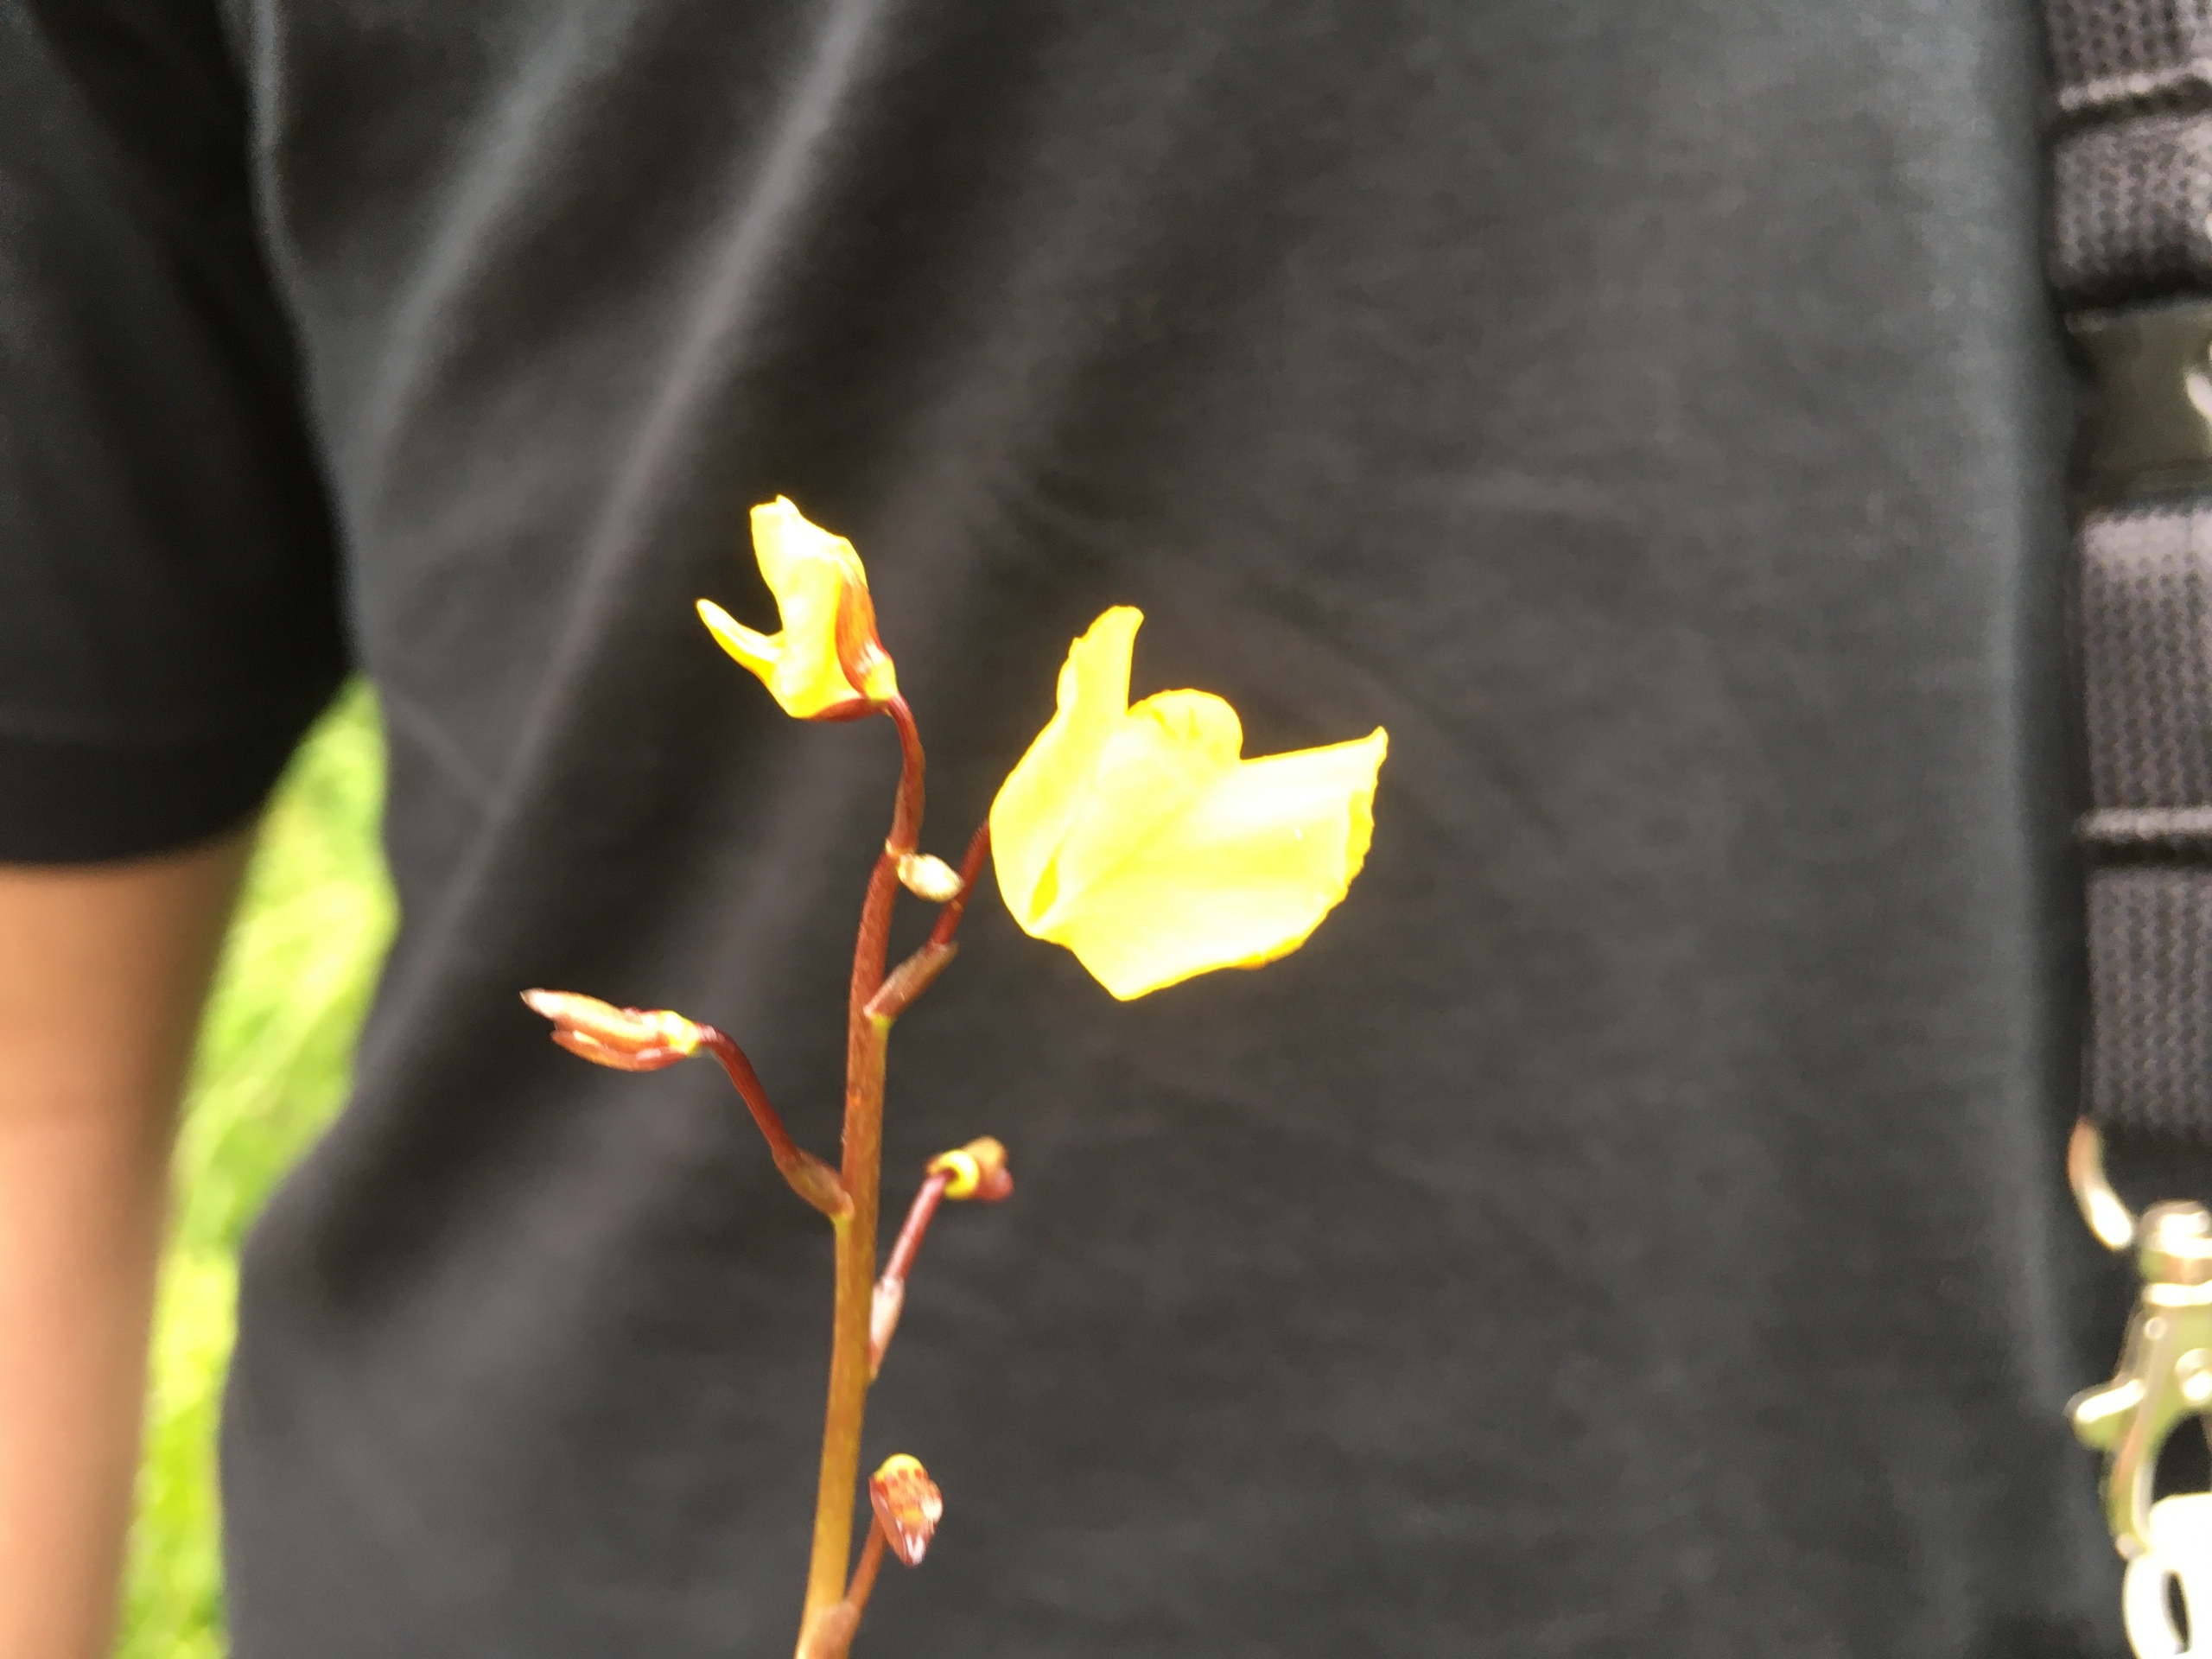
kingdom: Plantae
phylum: Tracheophyta
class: Magnoliopsida
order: Lamiales
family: Lentibulariaceae
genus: Utricularia
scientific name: Utricularia vulgaris
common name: Almindelig blærerod
